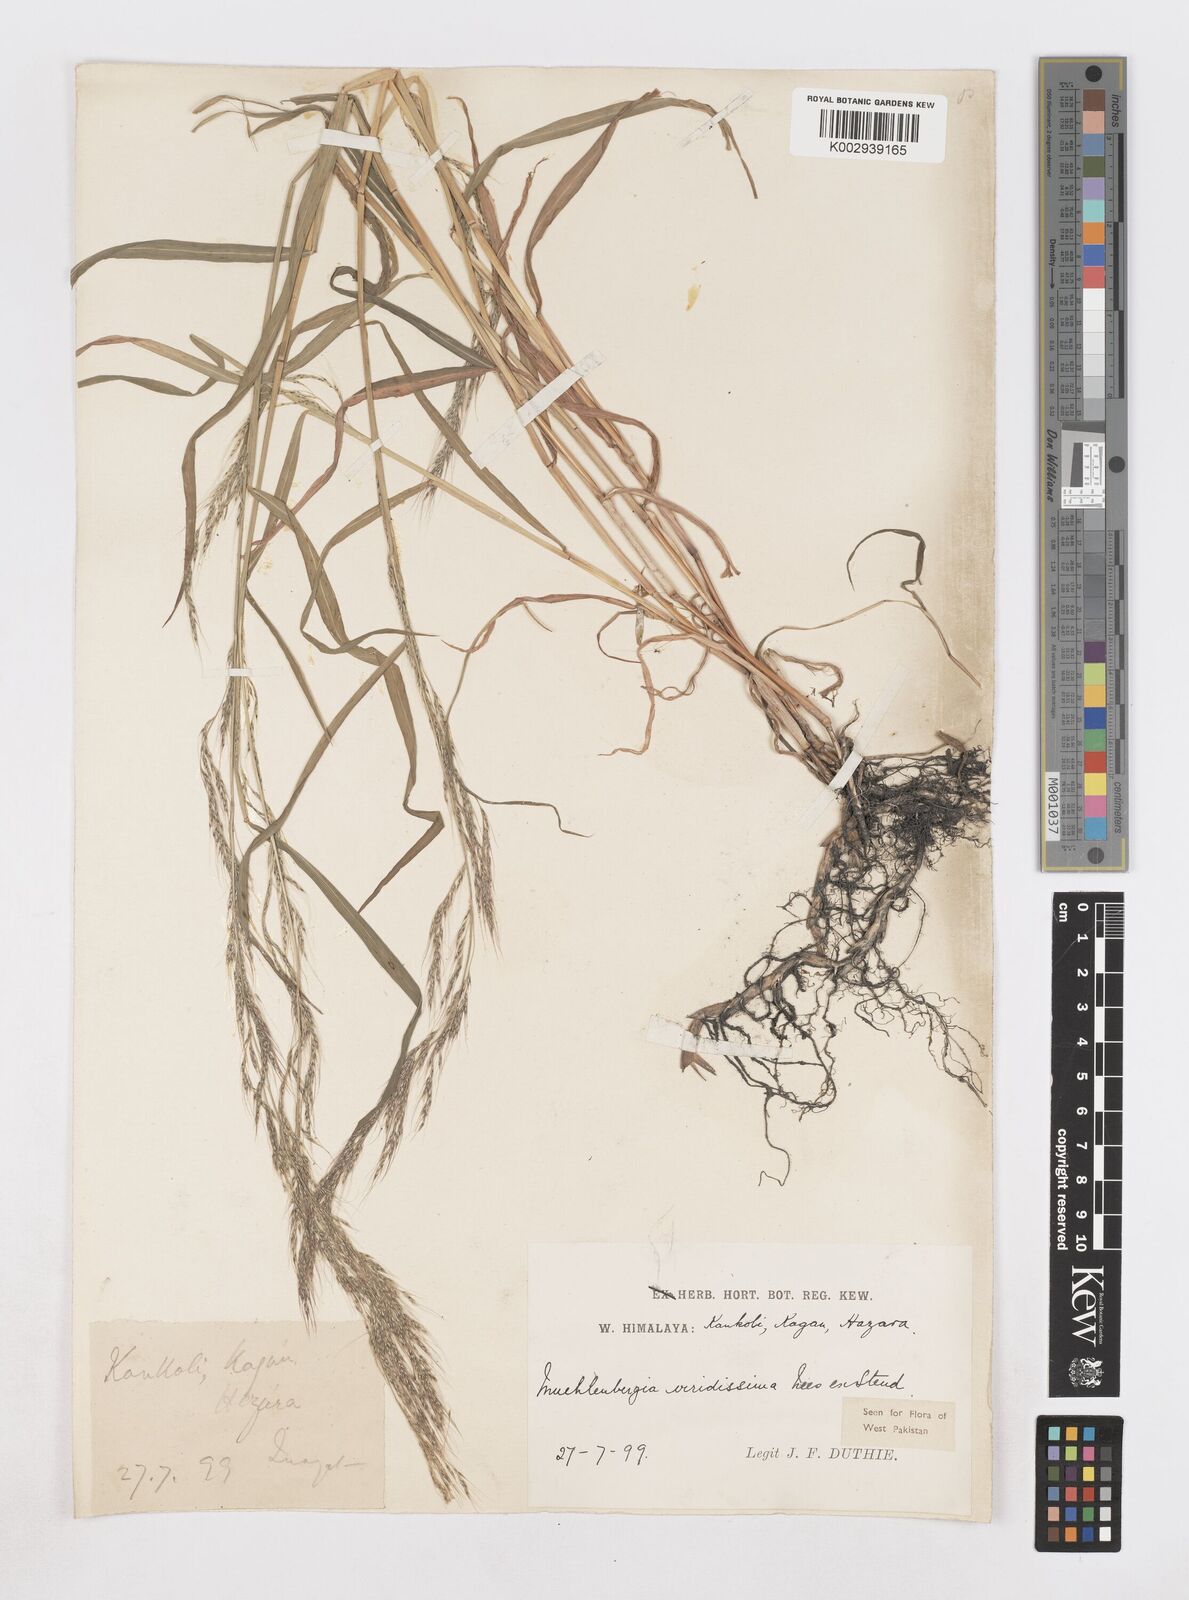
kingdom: Plantae
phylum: Tracheophyta
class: Liliopsida
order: Poales
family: Poaceae
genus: Muhlenbergia
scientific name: Muhlenbergia huegelii
